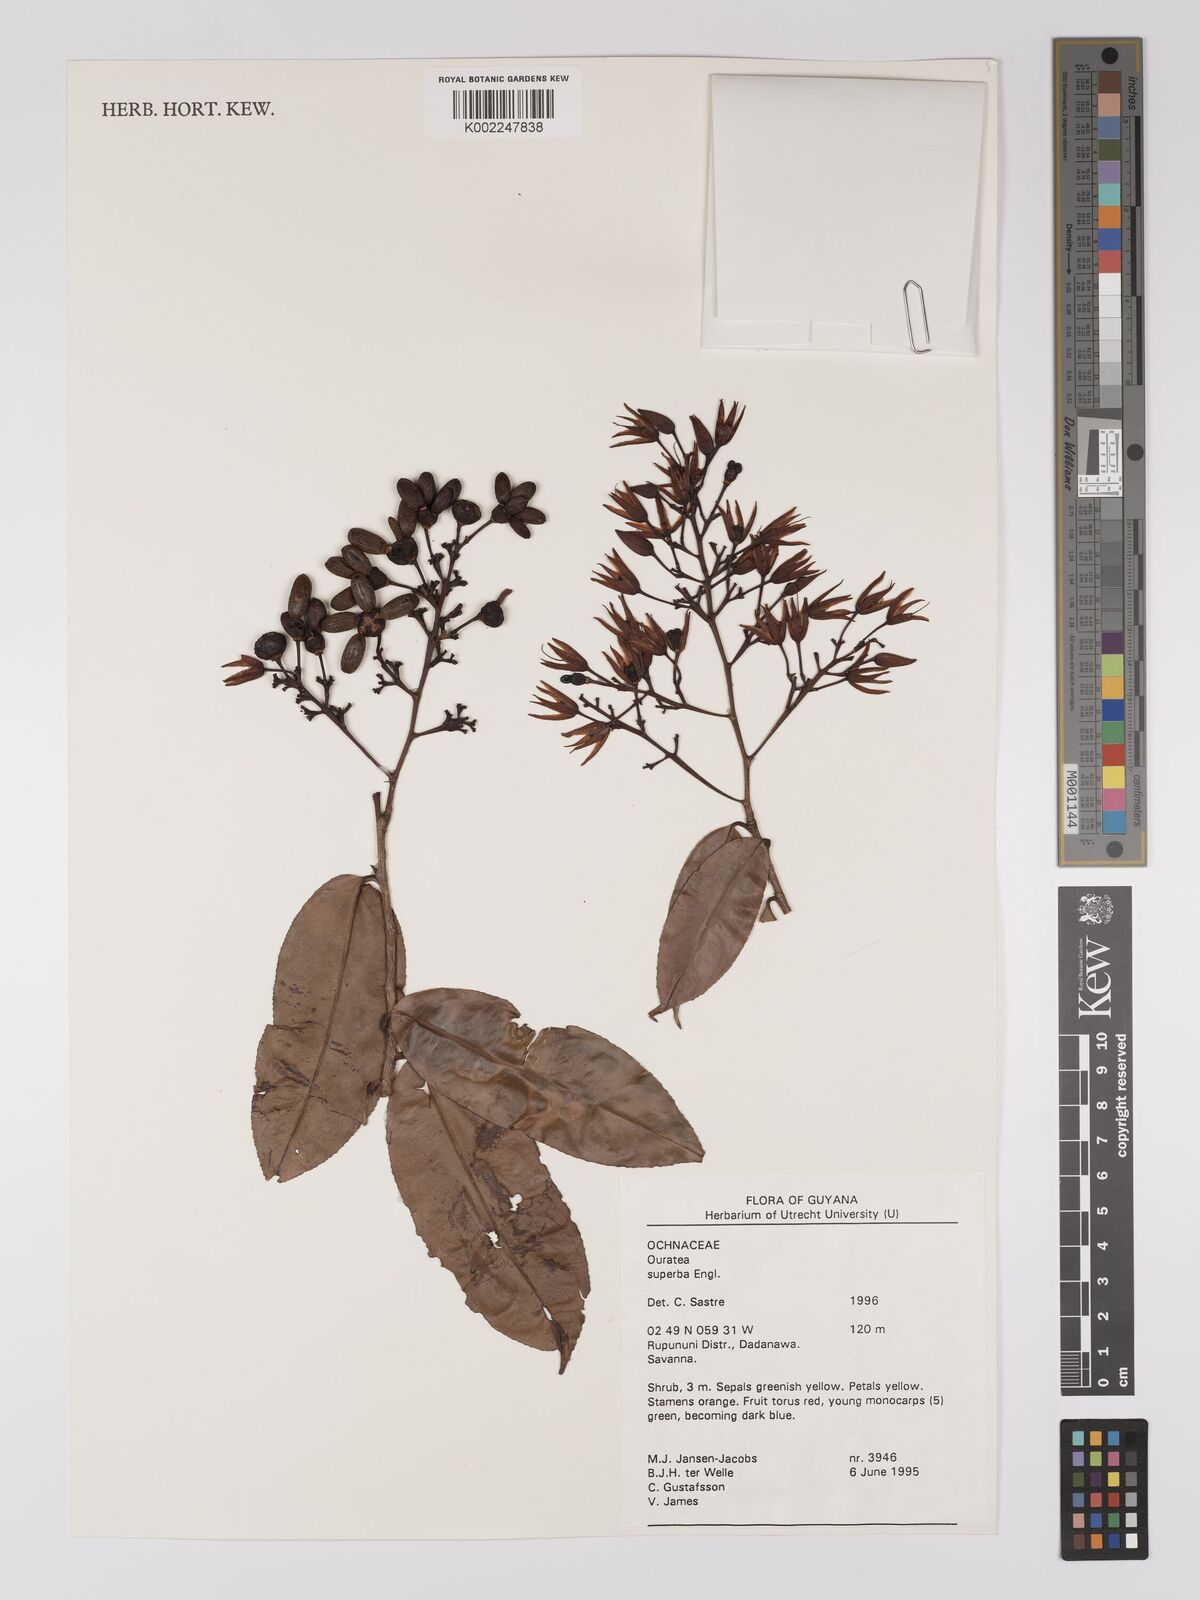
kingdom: Plantae
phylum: Tracheophyta
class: Magnoliopsida
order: Malpighiales
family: Ochnaceae
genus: Ouratea
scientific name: Ouratea superba
